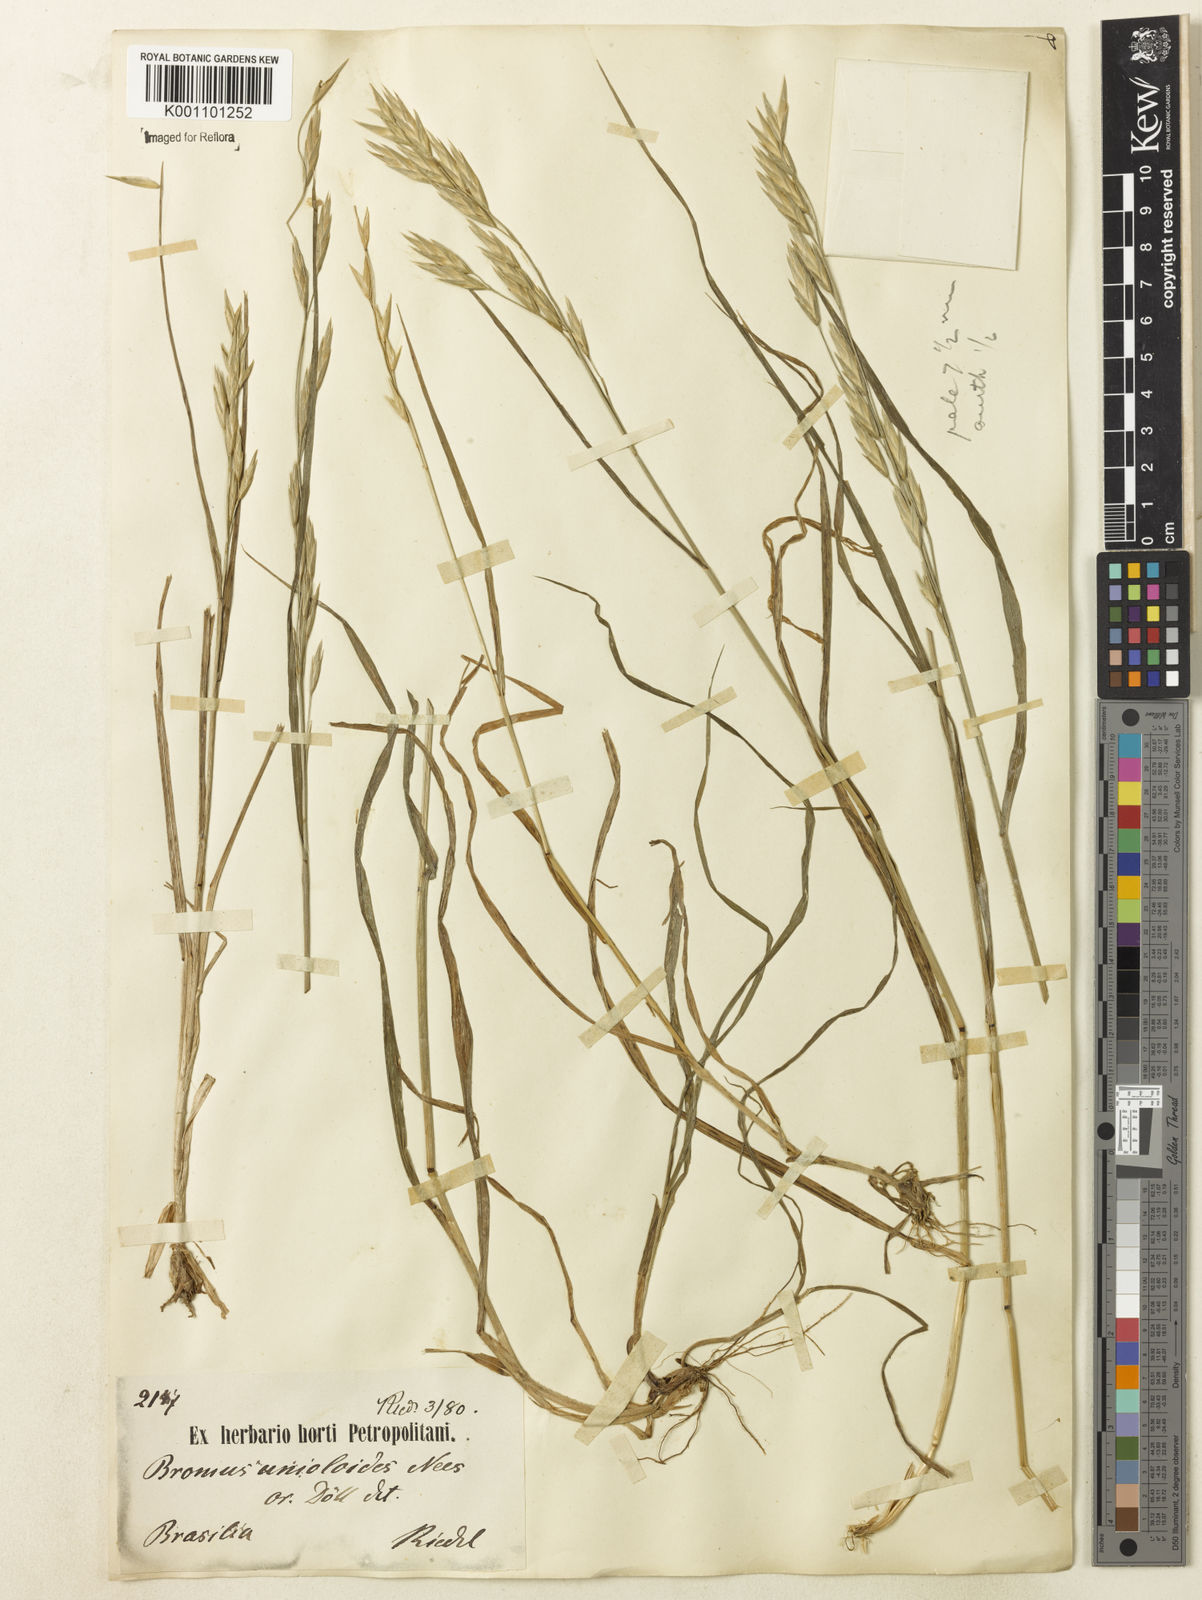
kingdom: Plantae
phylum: Tracheophyta
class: Liliopsida
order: Poales
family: Poaceae
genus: Bromus
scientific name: Bromus catharticus
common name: Rescuegrass
